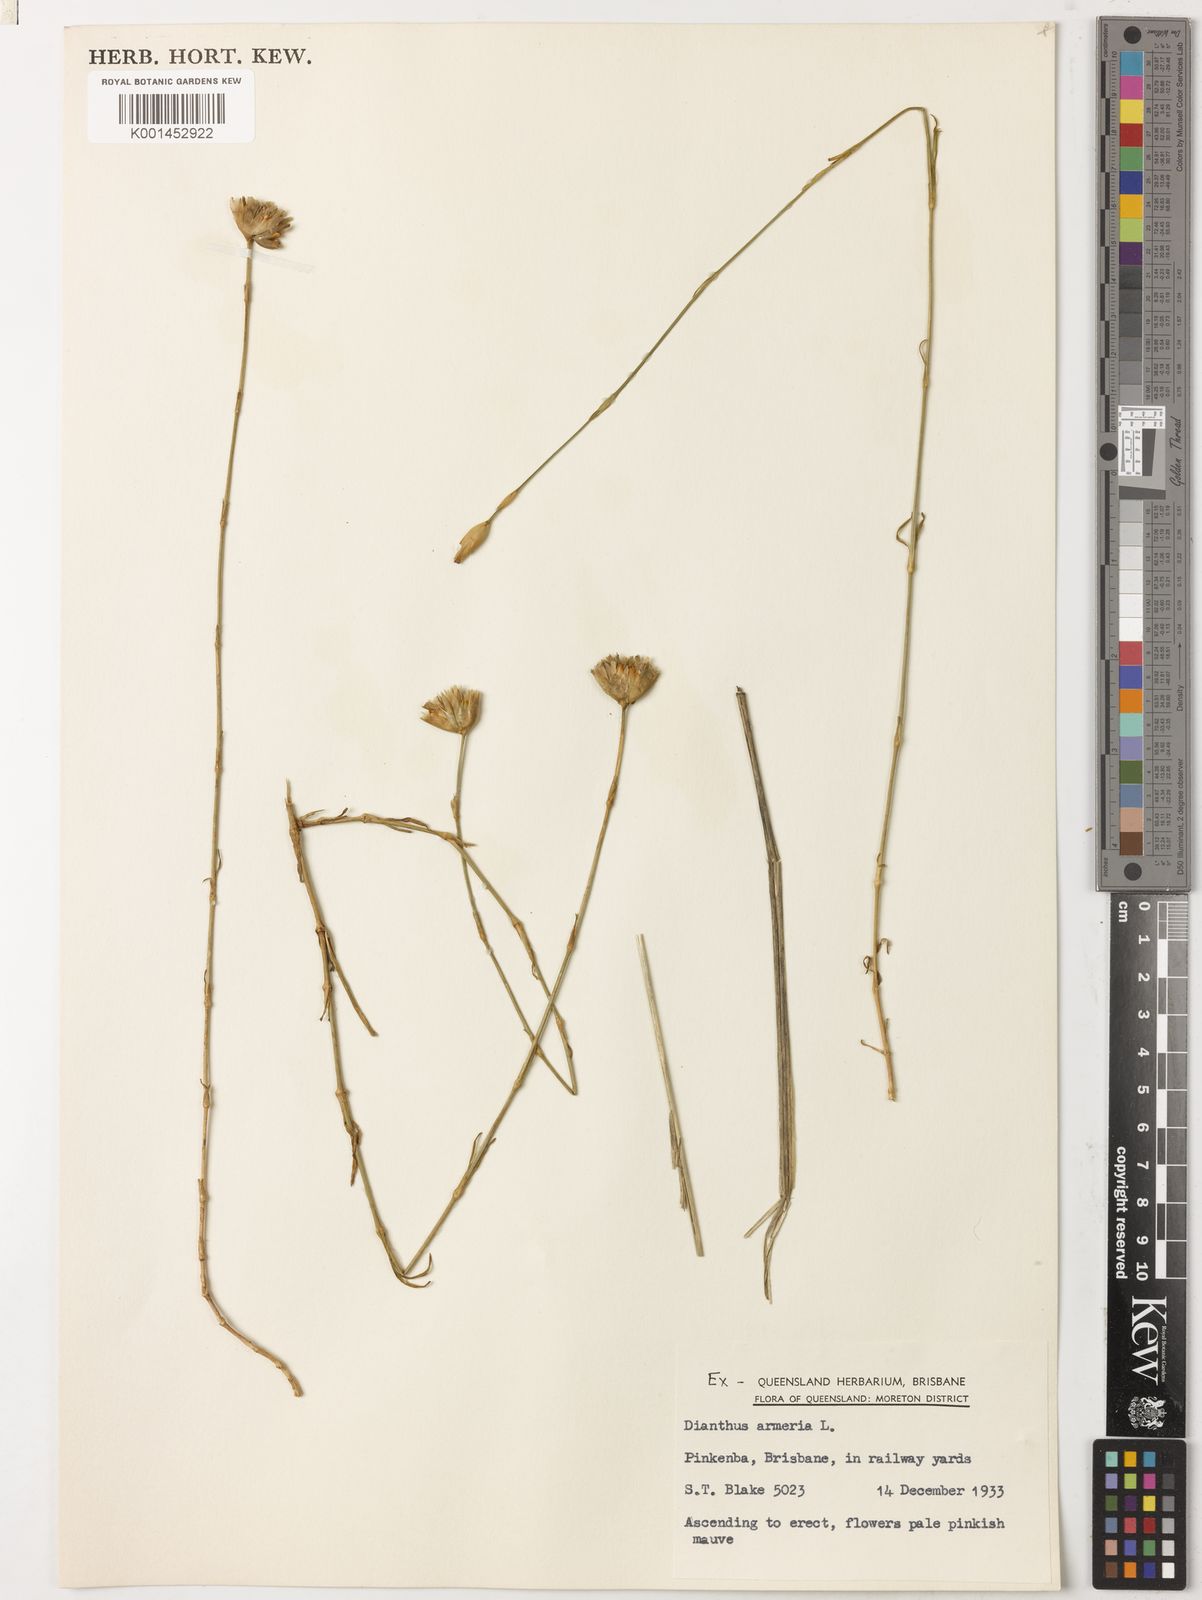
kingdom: Plantae
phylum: Tracheophyta
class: Magnoliopsida
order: Caryophyllales
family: Caryophyllaceae
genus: Dianthus
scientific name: Dianthus armeria
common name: Deptford pink
